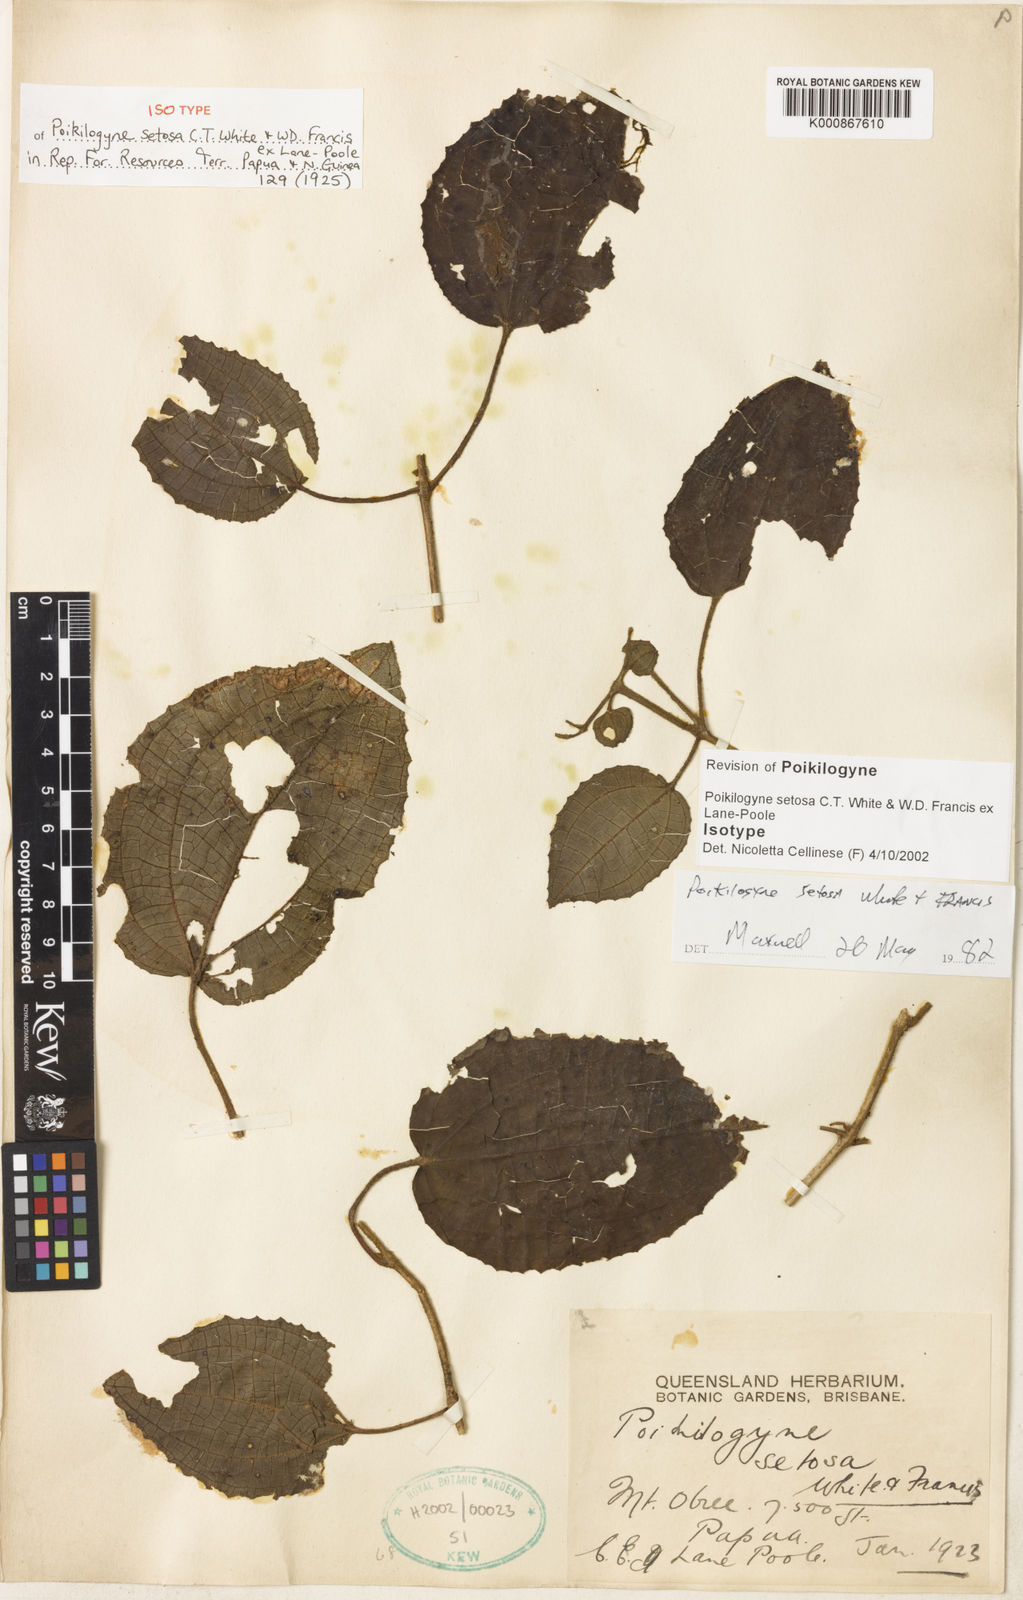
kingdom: Plantae
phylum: Tracheophyta
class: Magnoliopsida
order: Myrtales
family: Melastomataceae
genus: Poikilogyne
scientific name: Poikilogyne setosa
